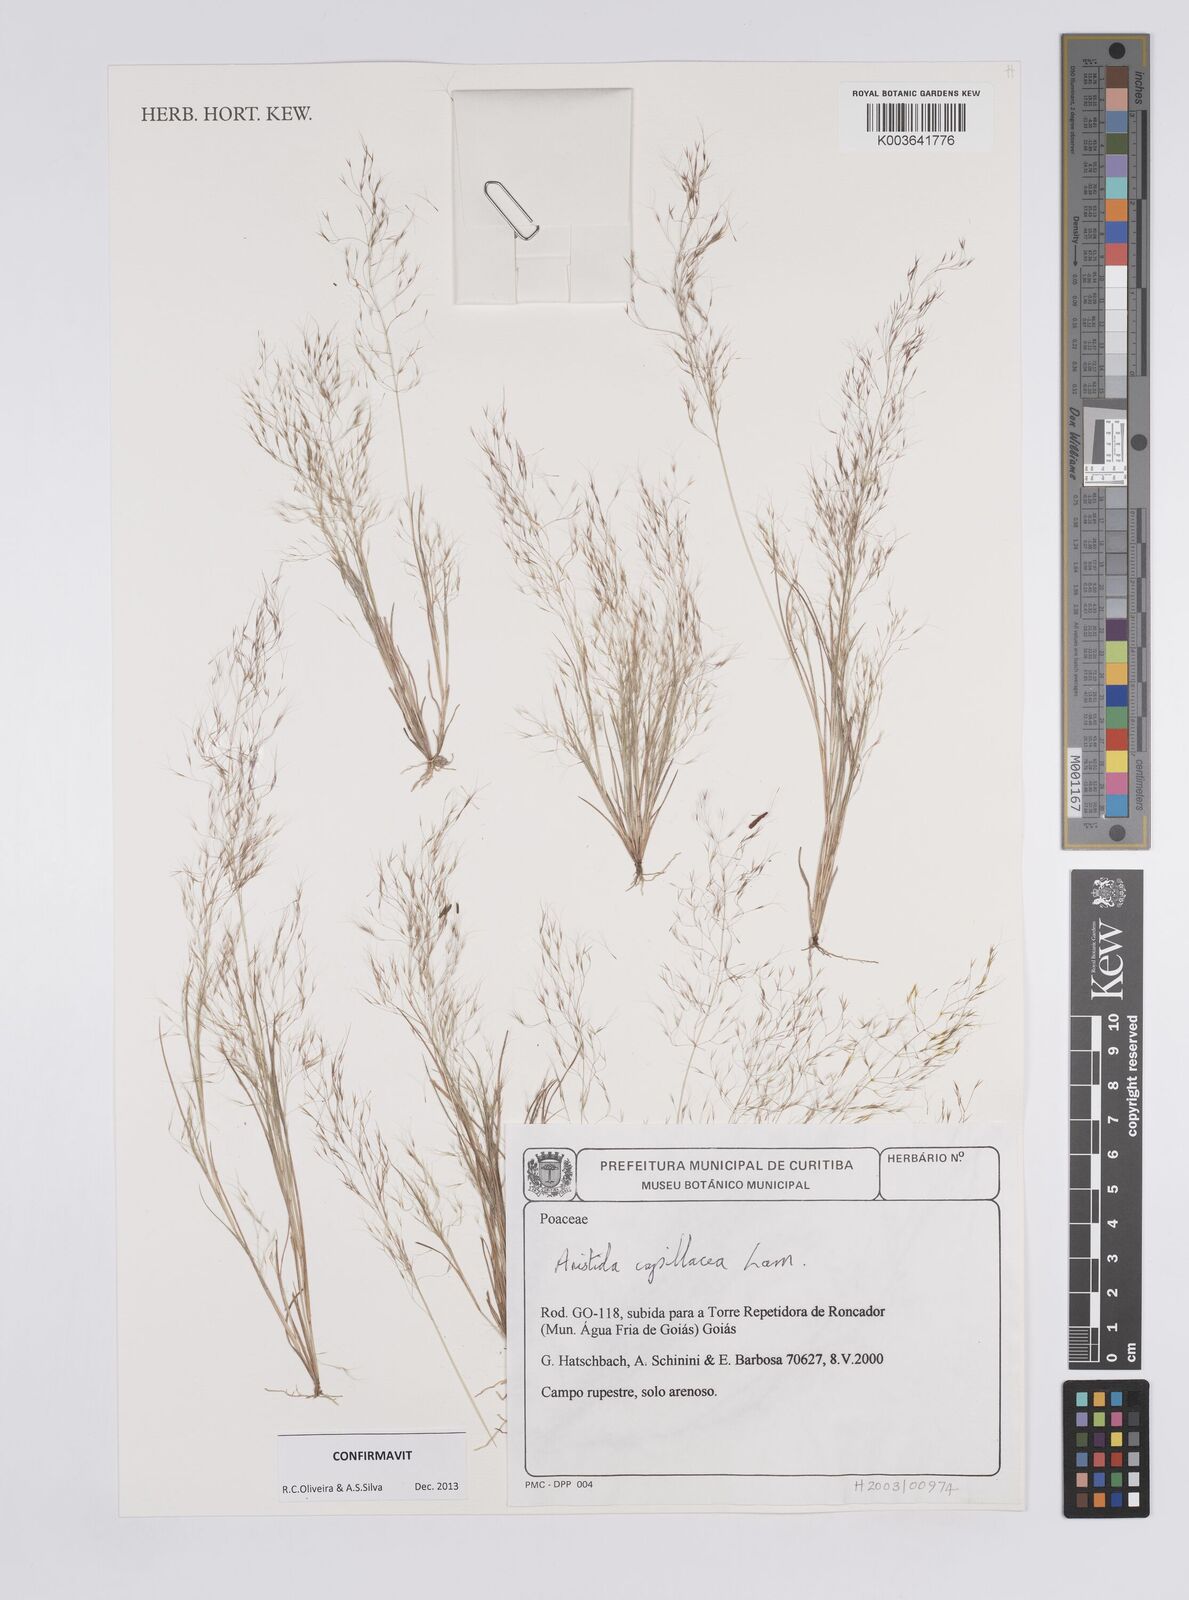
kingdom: Plantae
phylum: Tracheophyta
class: Liliopsida
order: Poales
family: Poaceae
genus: Aristida
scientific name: Aristida capillacea
